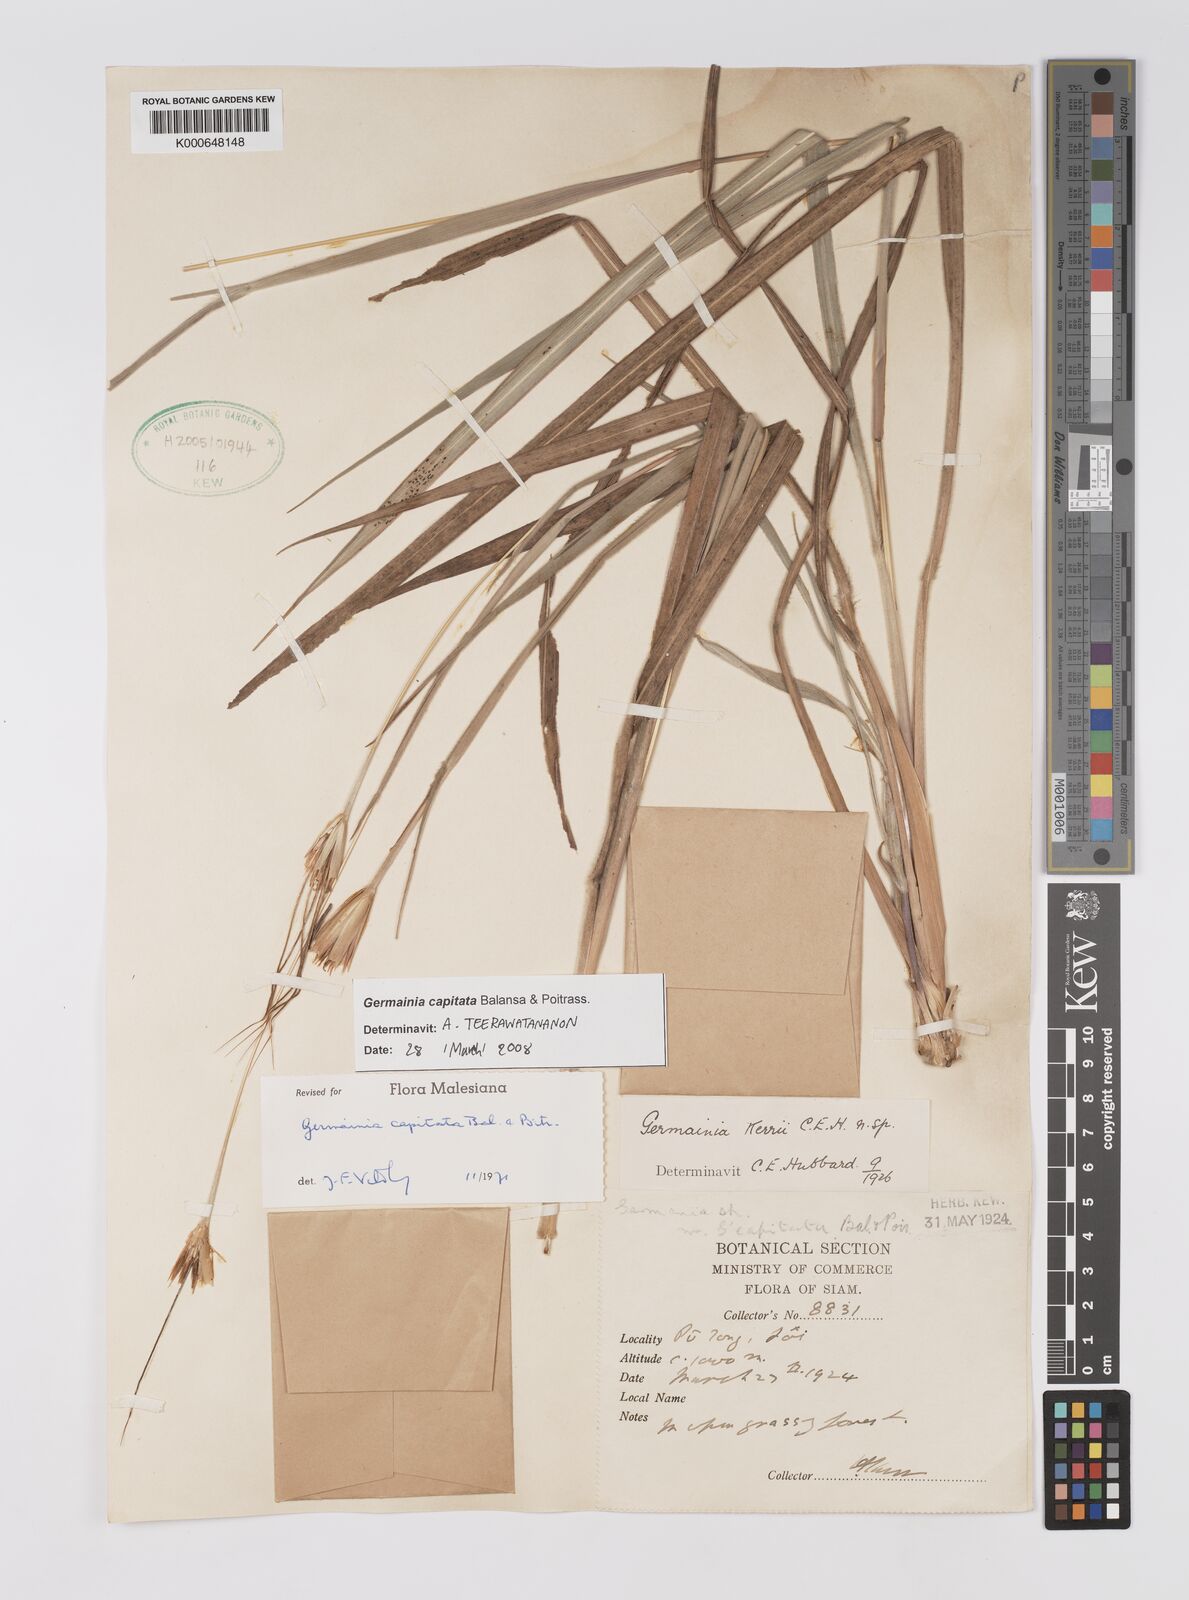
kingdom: Plantae
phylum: Tracheophyta
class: Liliopsida
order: Poales
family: Poaceae
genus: Germainia
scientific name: Germainia capitata
